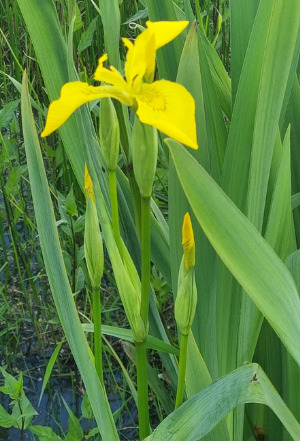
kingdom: Plantae
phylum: Tracheophyta
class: Liliopsida
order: Asparagales
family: Iridaceae
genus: Iris
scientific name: Iris pseudacorus
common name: Gul iris
